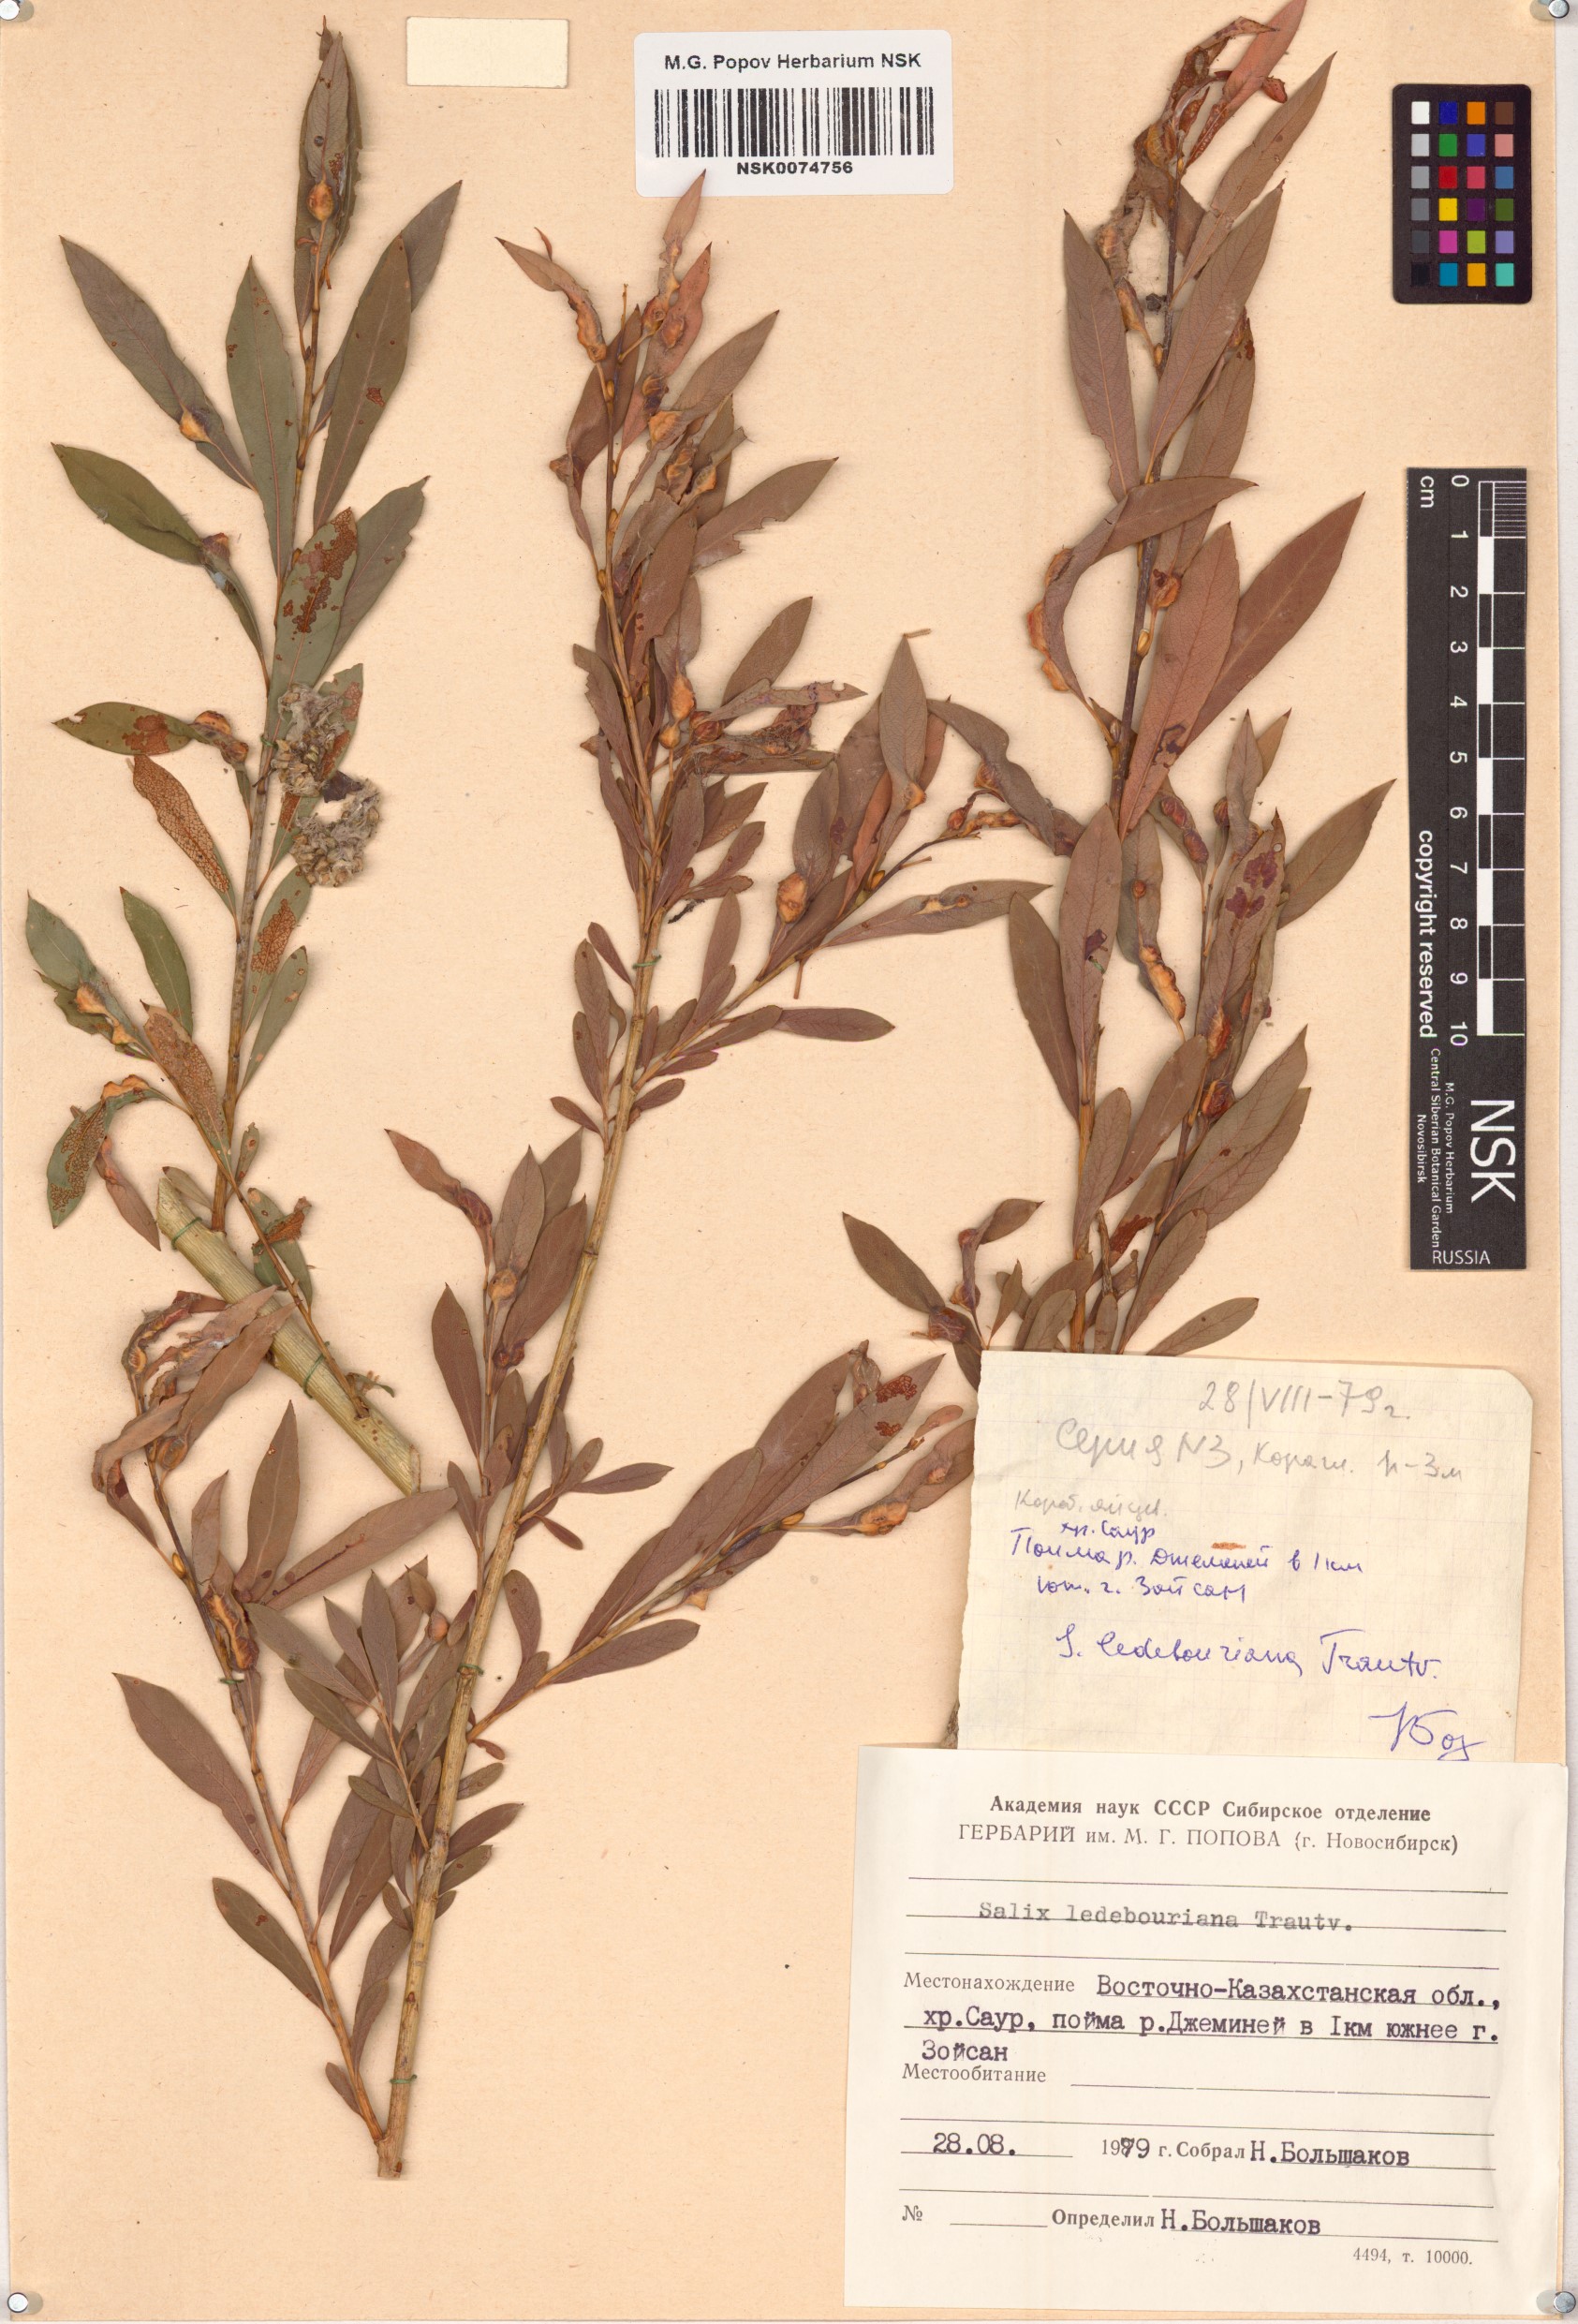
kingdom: Plantae
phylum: Tracheophyta
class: Magnoliopsida
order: Malpighiales
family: Salicaceae
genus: Salix
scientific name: Salix ledebouriana
